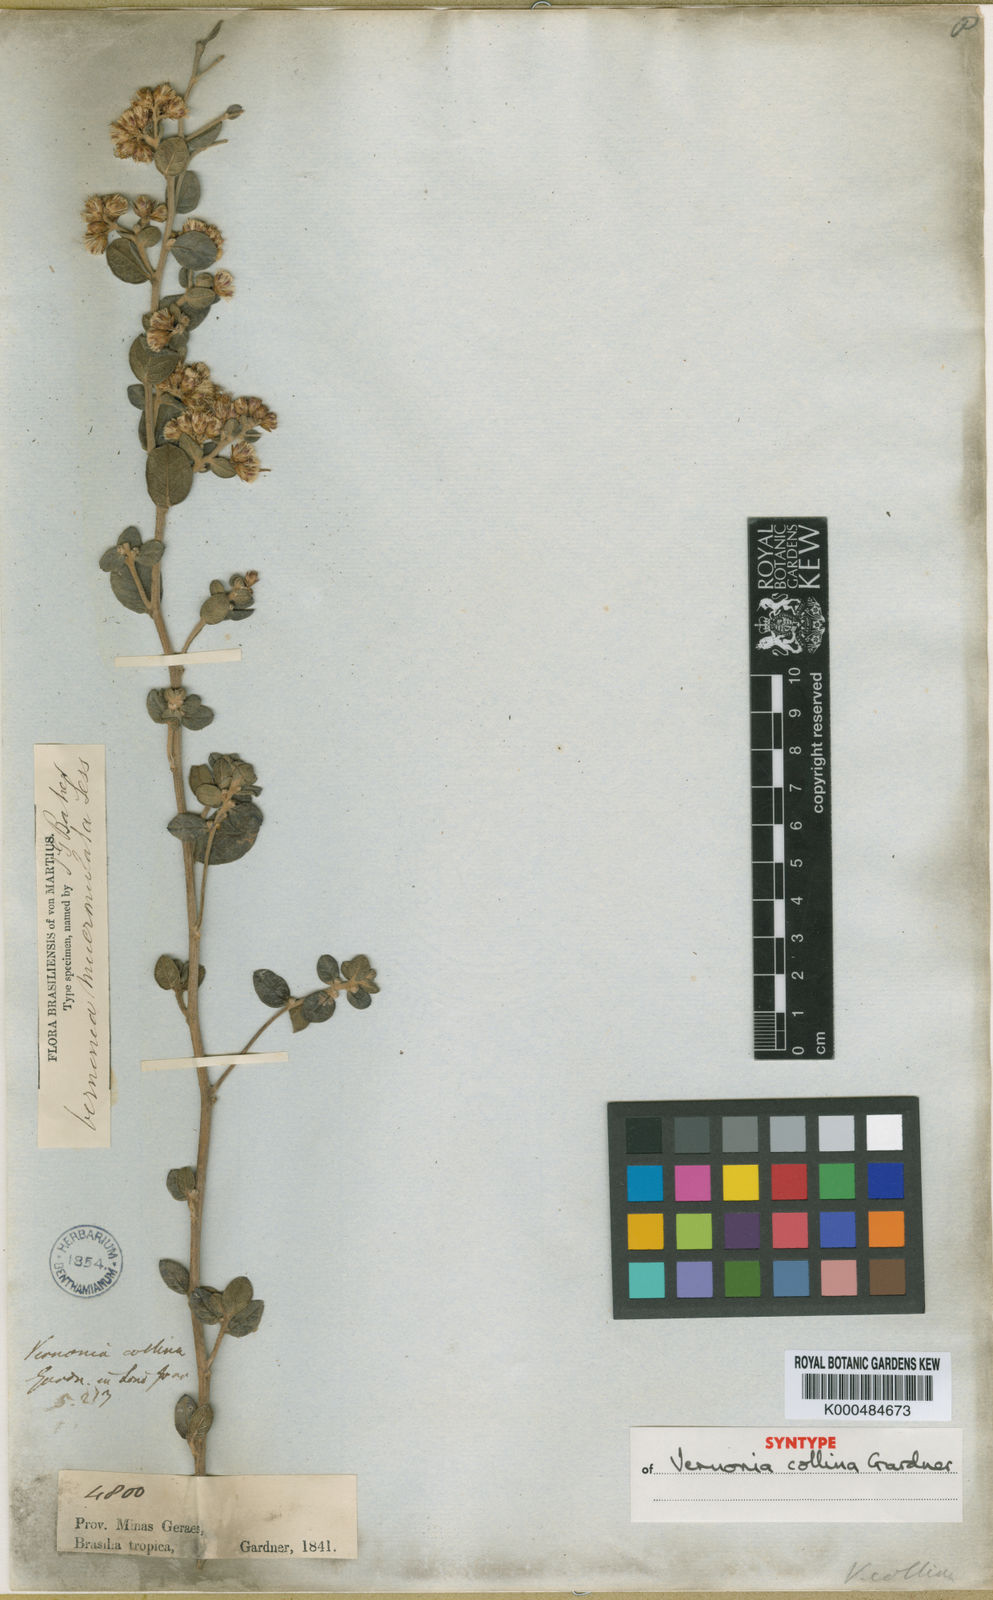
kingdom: Plantae
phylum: Tracheophyta
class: Magnoliopsida
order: Asterales
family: Asteraceae
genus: Vernonanthura
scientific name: Vernonanthura mucronulata
